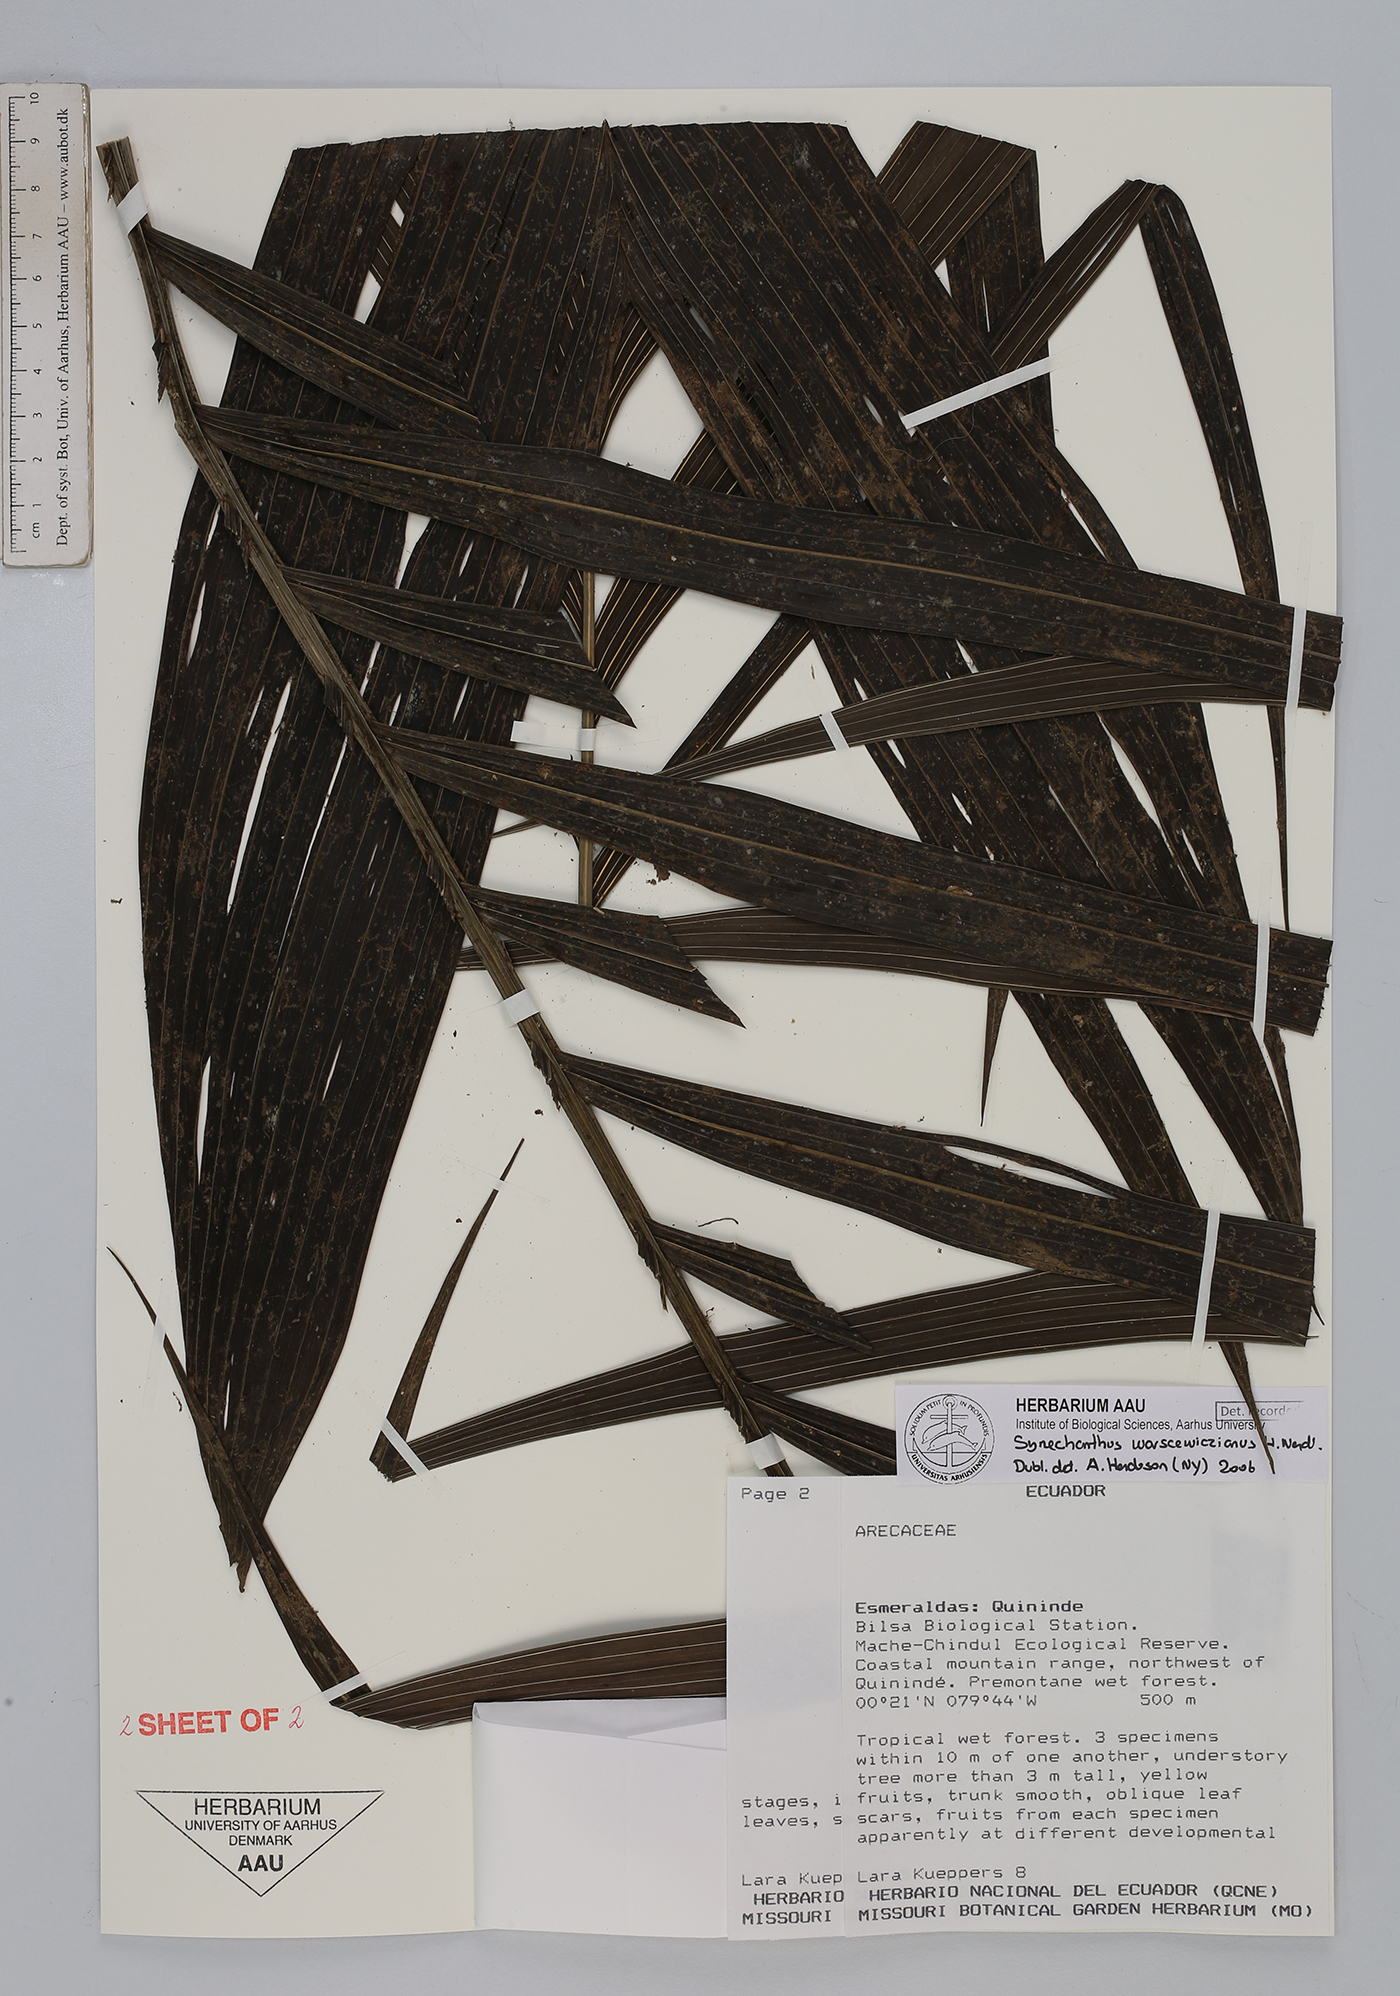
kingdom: Plantae
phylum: Tracheophyta
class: Liliopsida
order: Arecales
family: Arecaceae
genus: Synechanthus
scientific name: Synechanthus warscewiczianus
